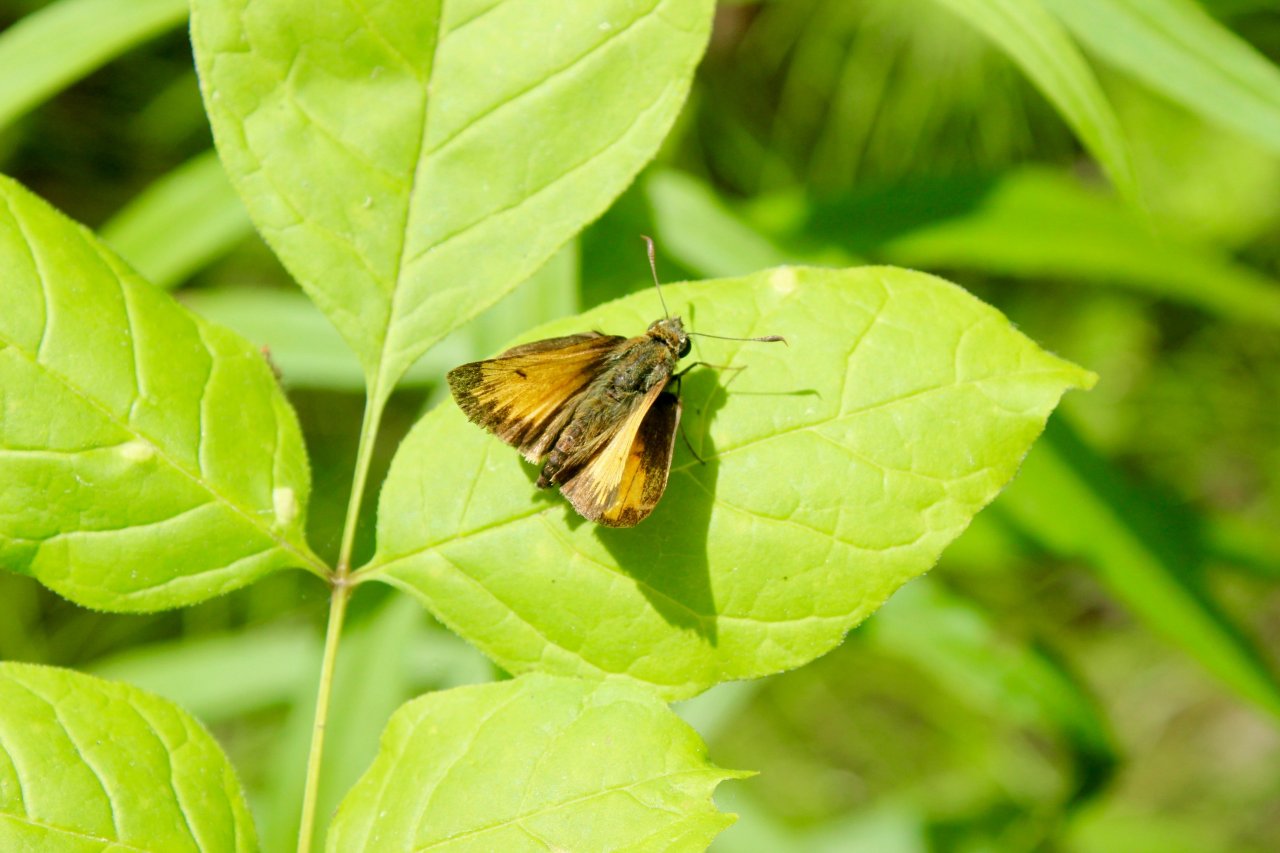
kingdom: Animalia
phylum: Arthropoda
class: Insecta
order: Lepidoptera
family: Hesperiidae
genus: Lon
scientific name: Lon hobomok
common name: Hobomok Skipper
